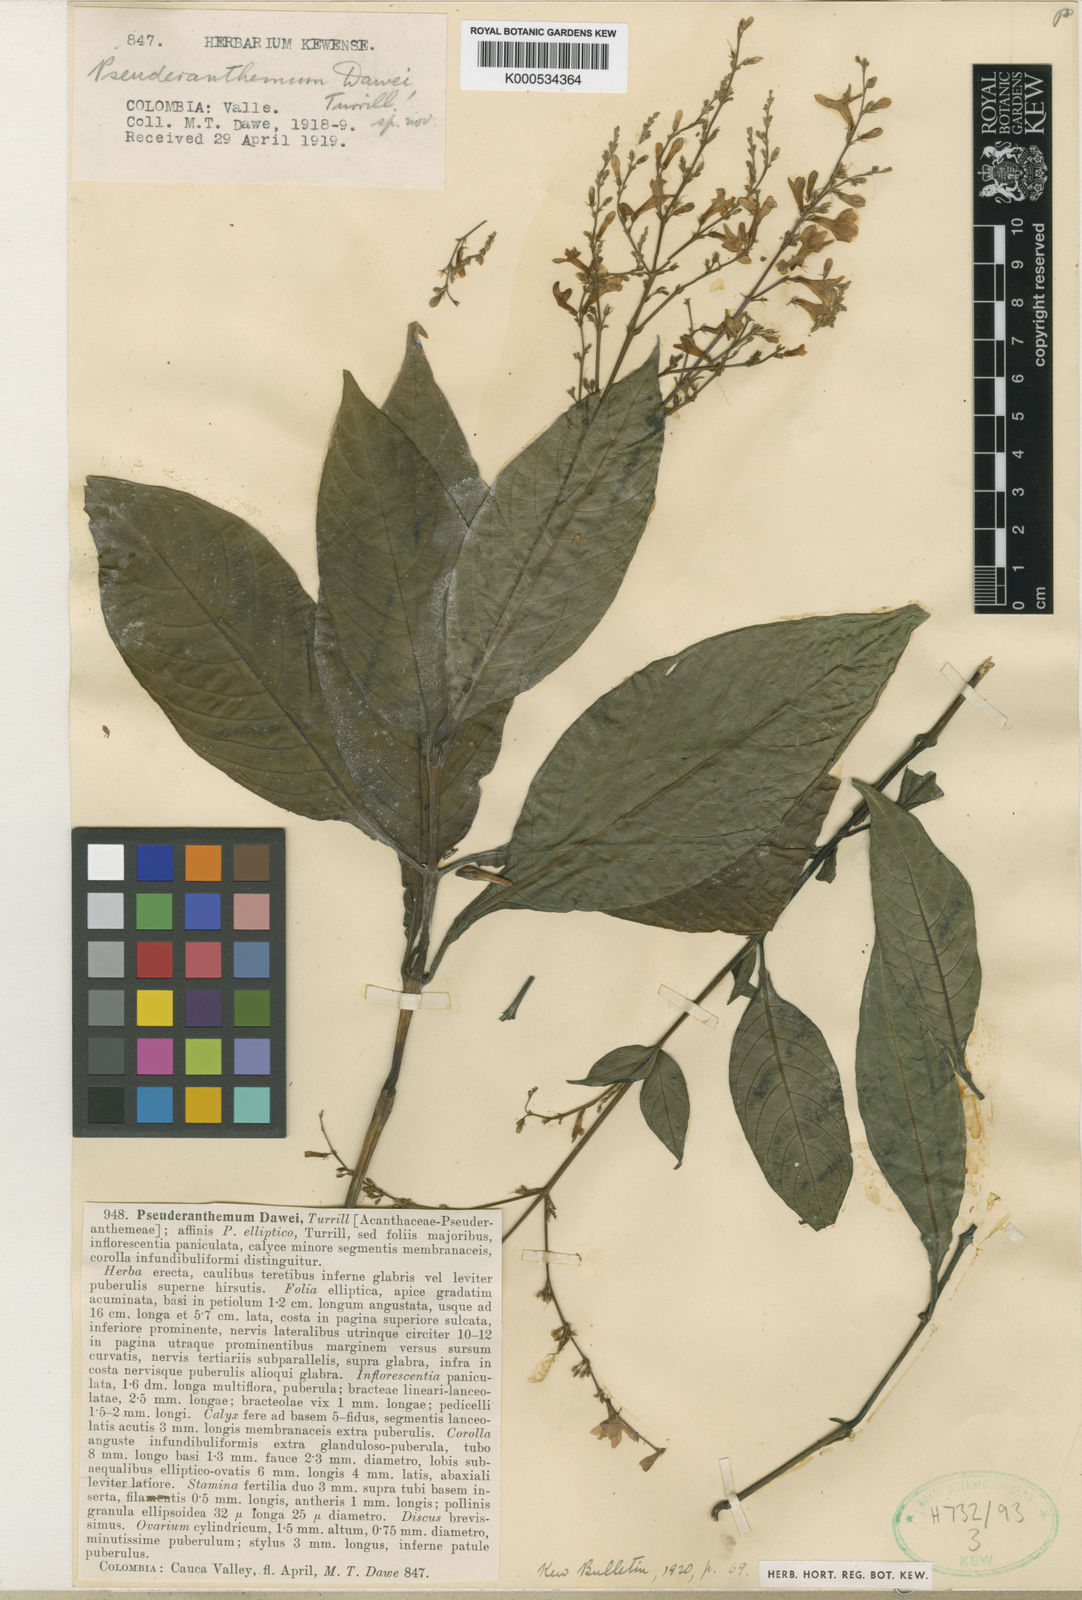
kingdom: Plantae
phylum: Tracheophyta
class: Magnoliopsida
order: Lamiales
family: Acanthaceae
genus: Pseuderanthemum
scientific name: Pseuderanthemum dawei
